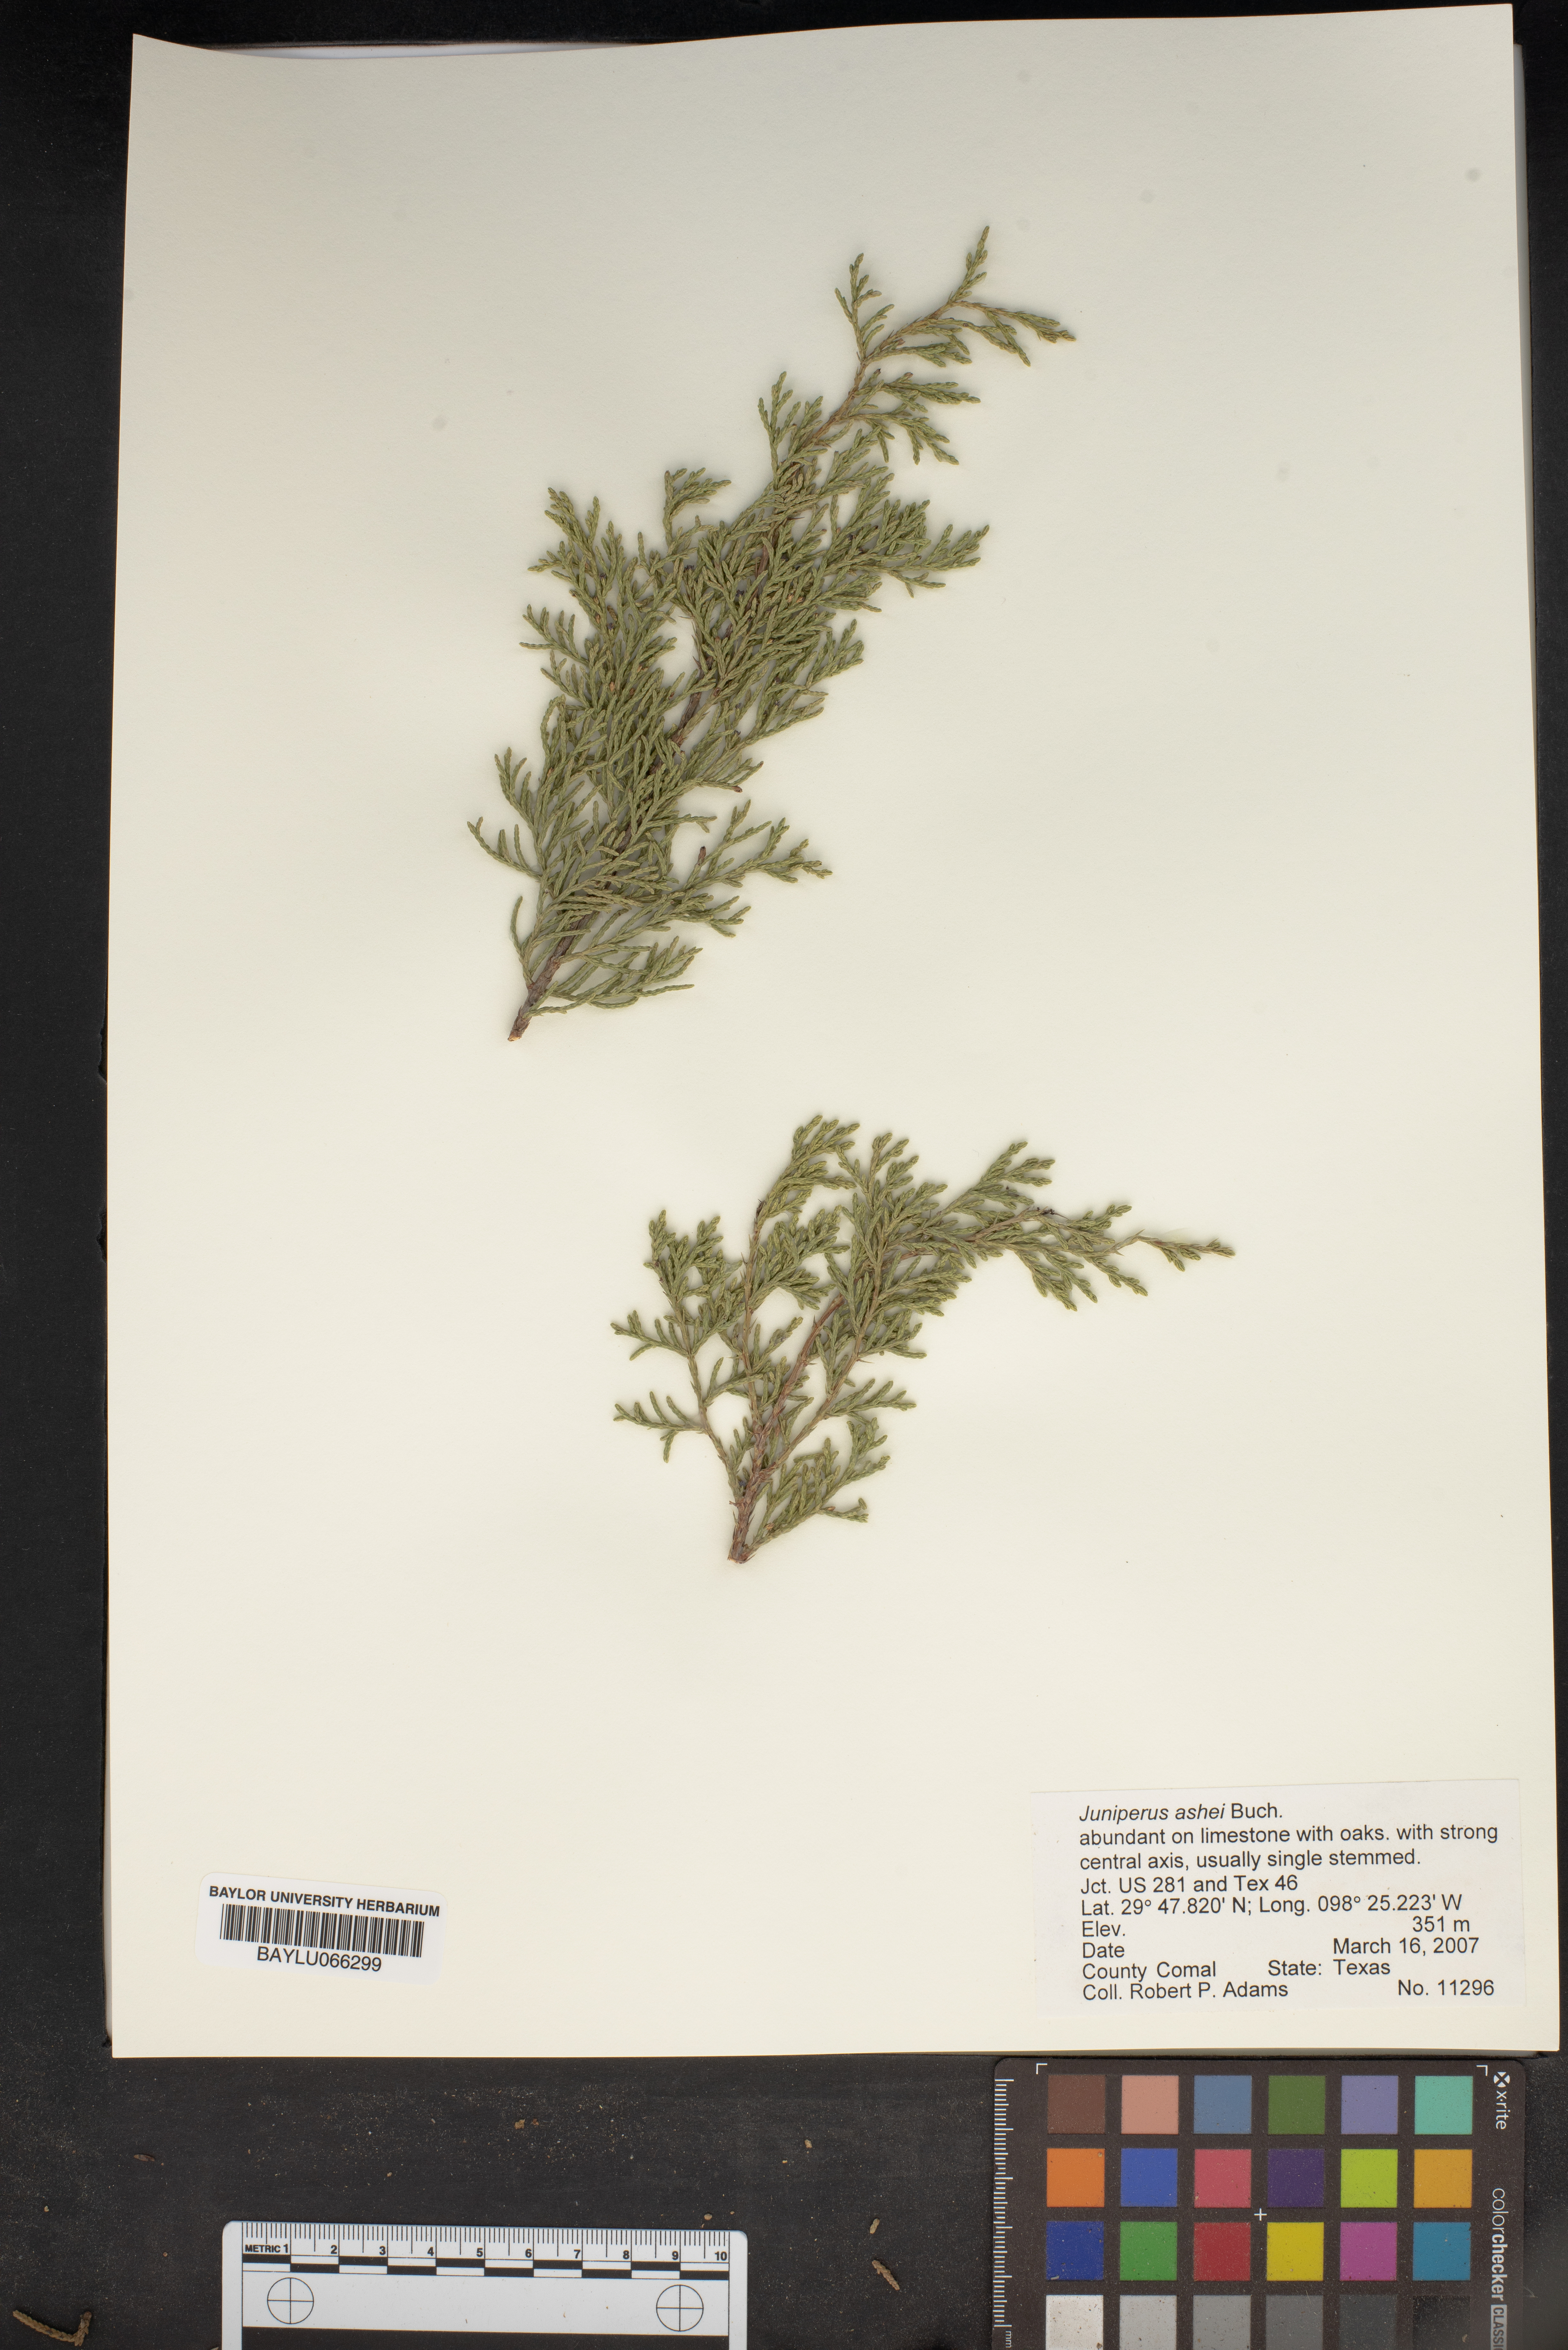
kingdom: Plantae
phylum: Tracheophyta
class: Pinopsida
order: Pinales
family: Cupressaceae
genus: Juniperus
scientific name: Juniperus ashei
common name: Mexican juniper
